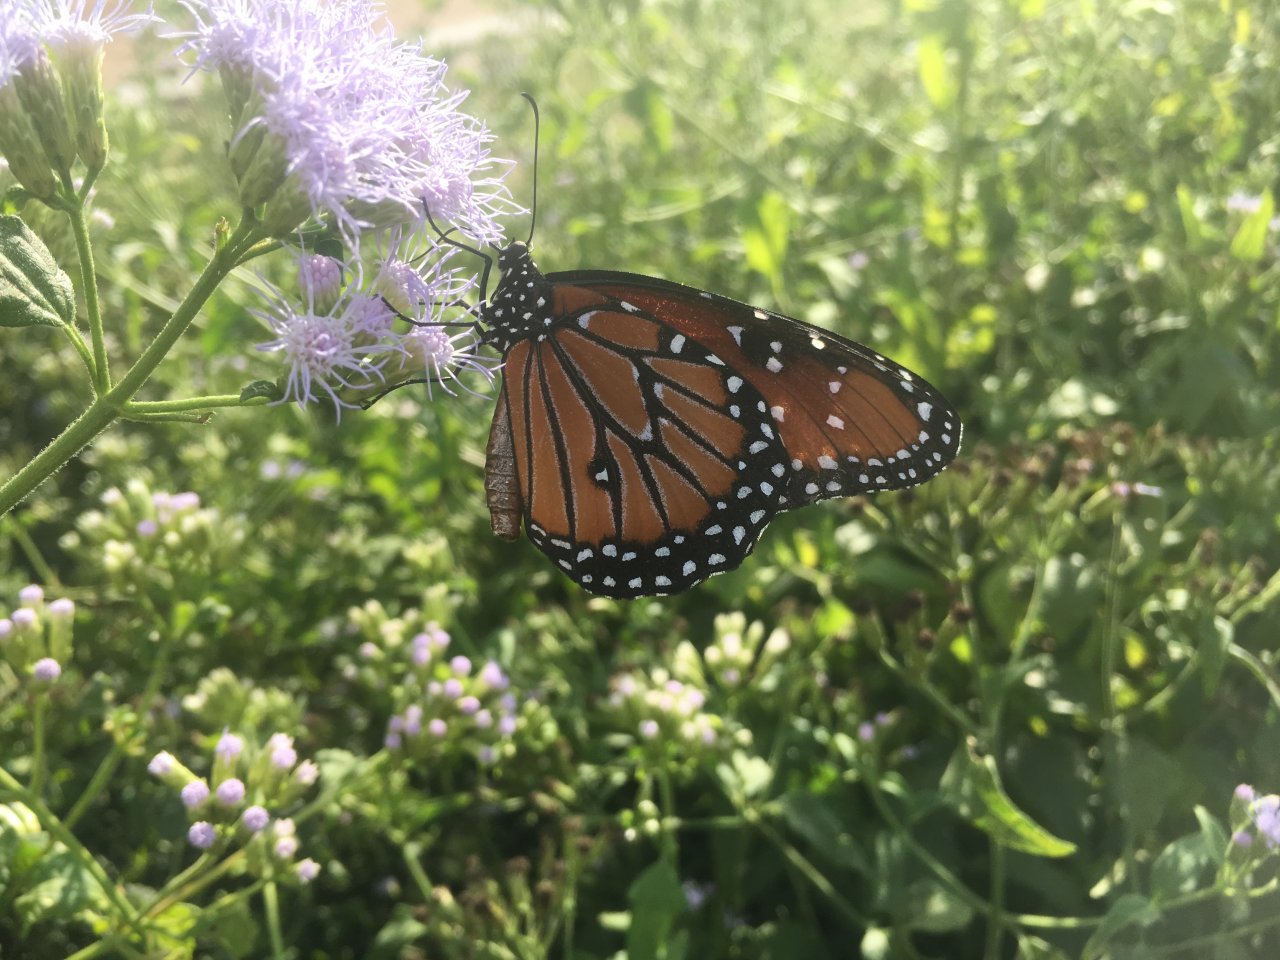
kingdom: Animalia
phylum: Arthropoda
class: Insecta
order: Lepidoptera
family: Nymphalidae
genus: Danaus
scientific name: Danaus gilippus
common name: Queen
